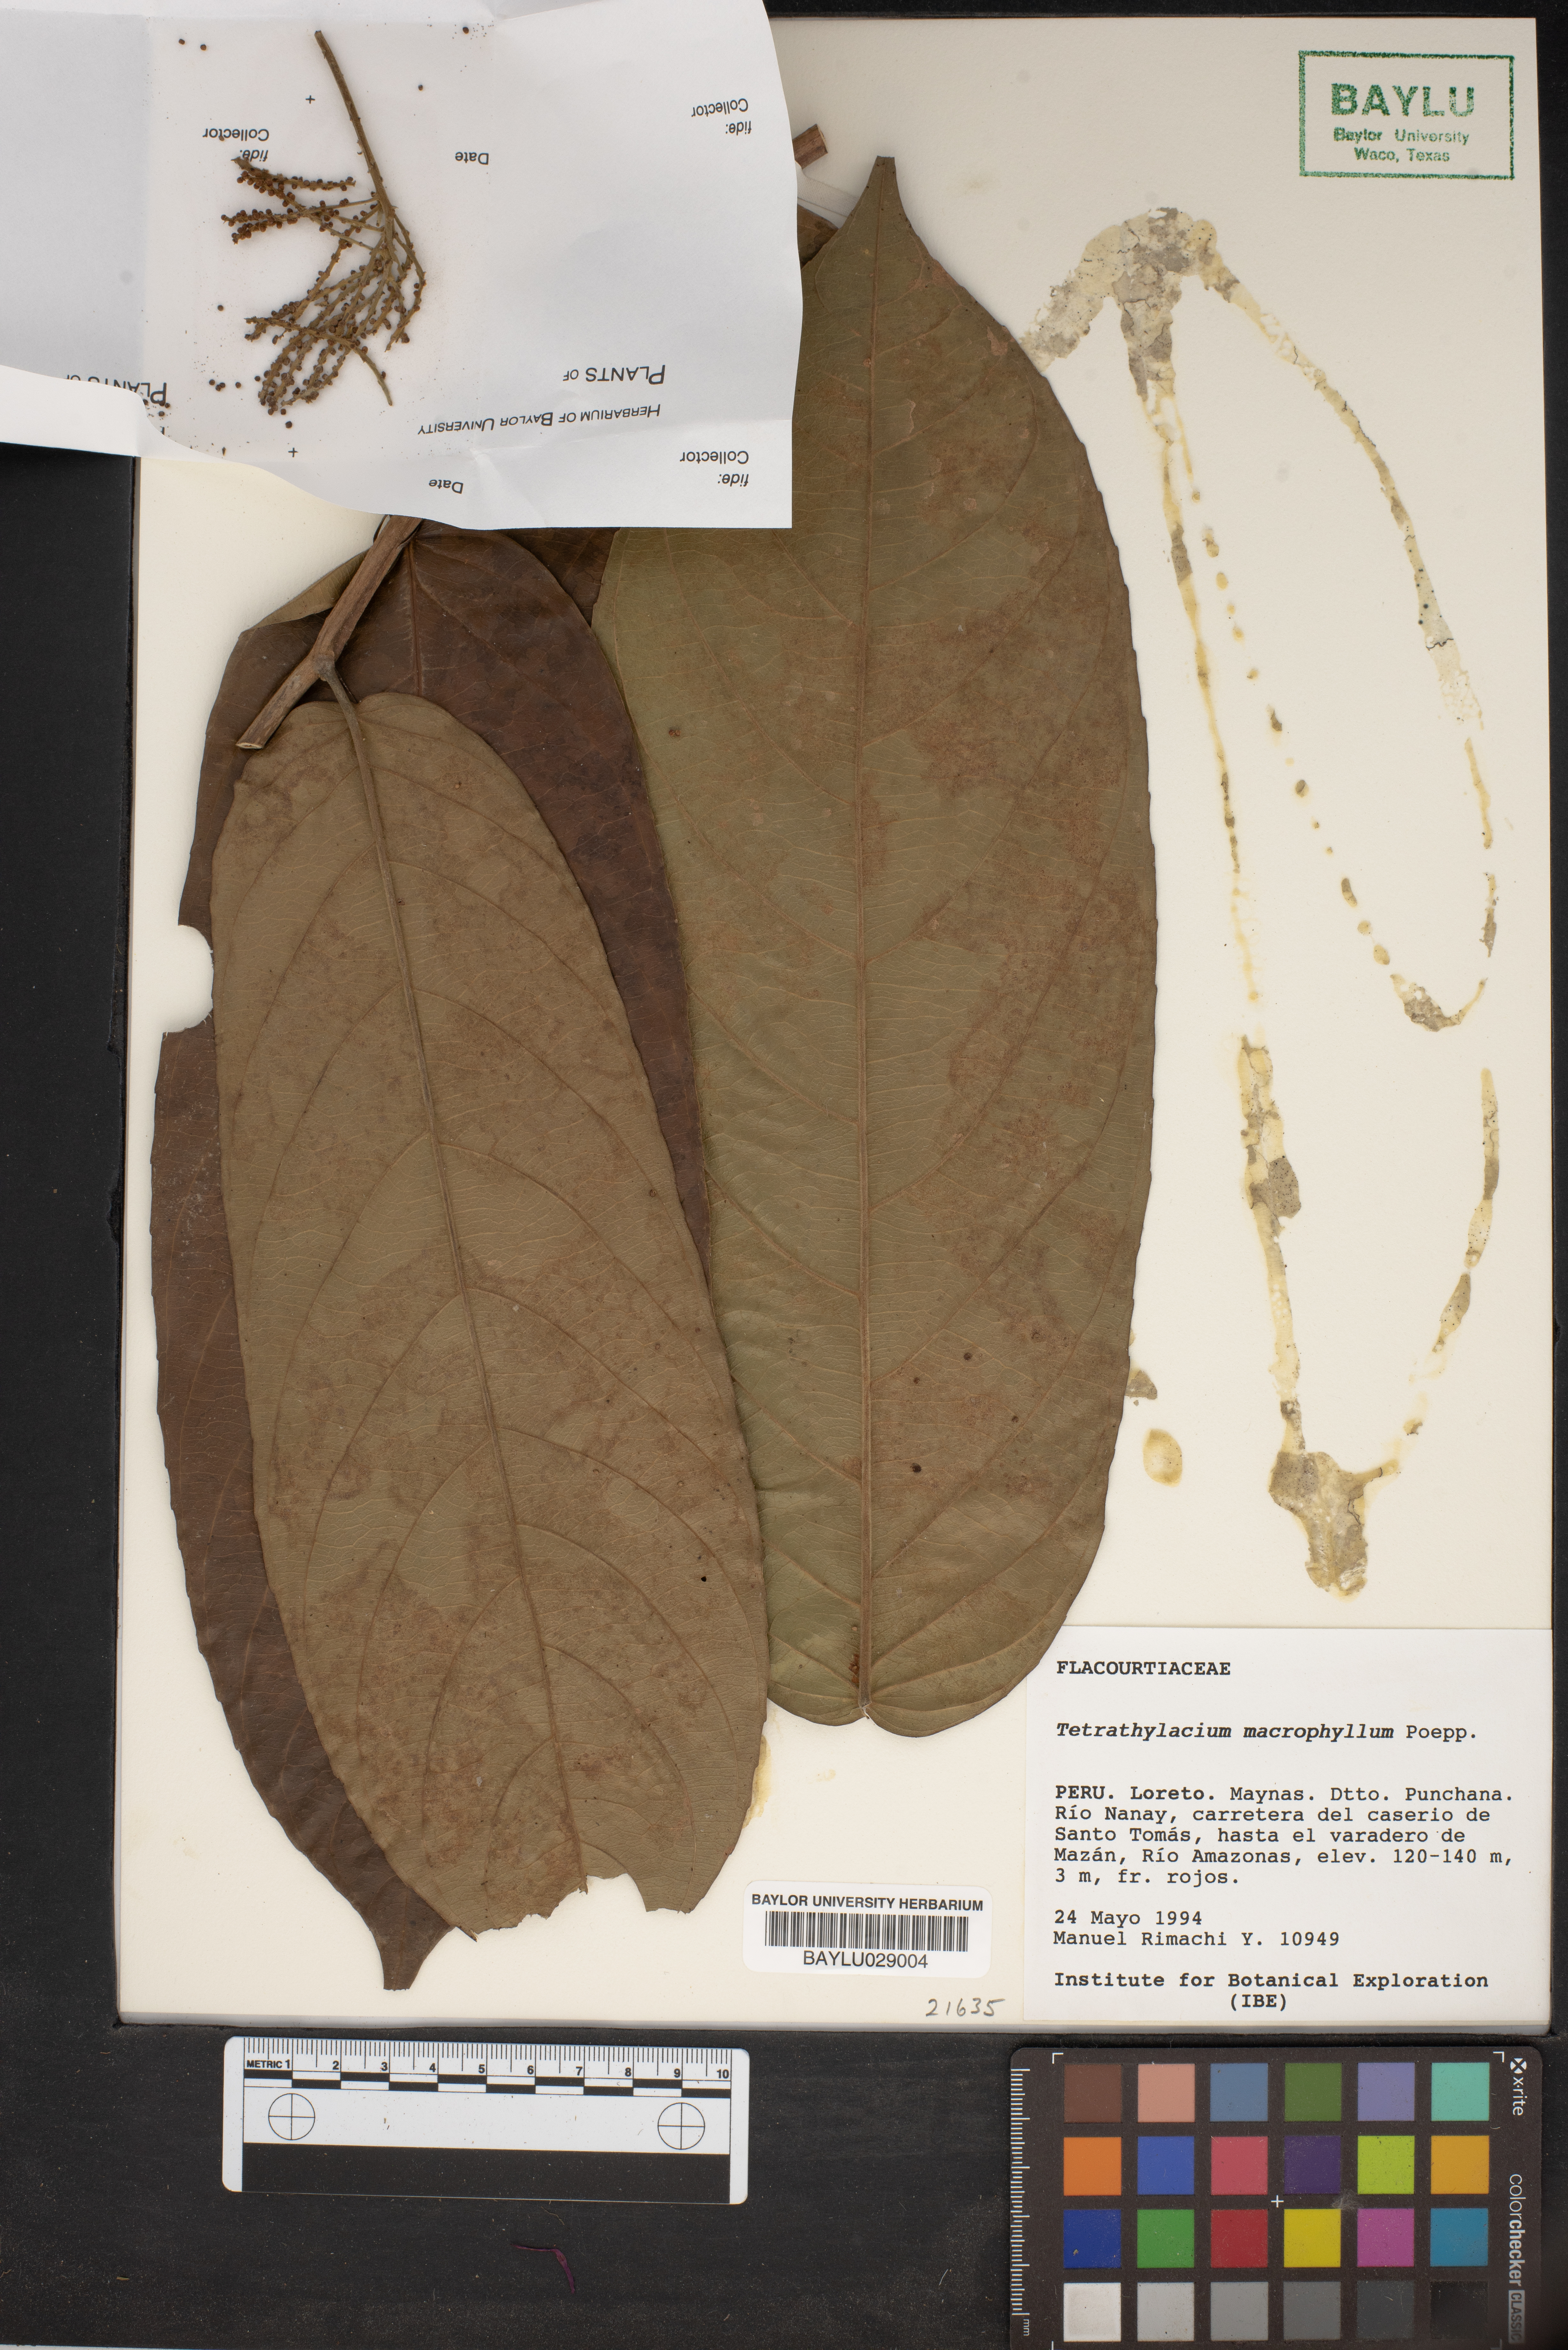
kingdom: Plantae
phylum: Tracheophyta
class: Magnoliopsida
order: Malpighiales
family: Salicaceae
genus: Tetrathylacium
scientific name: Tetrathylacium macrophyllum
